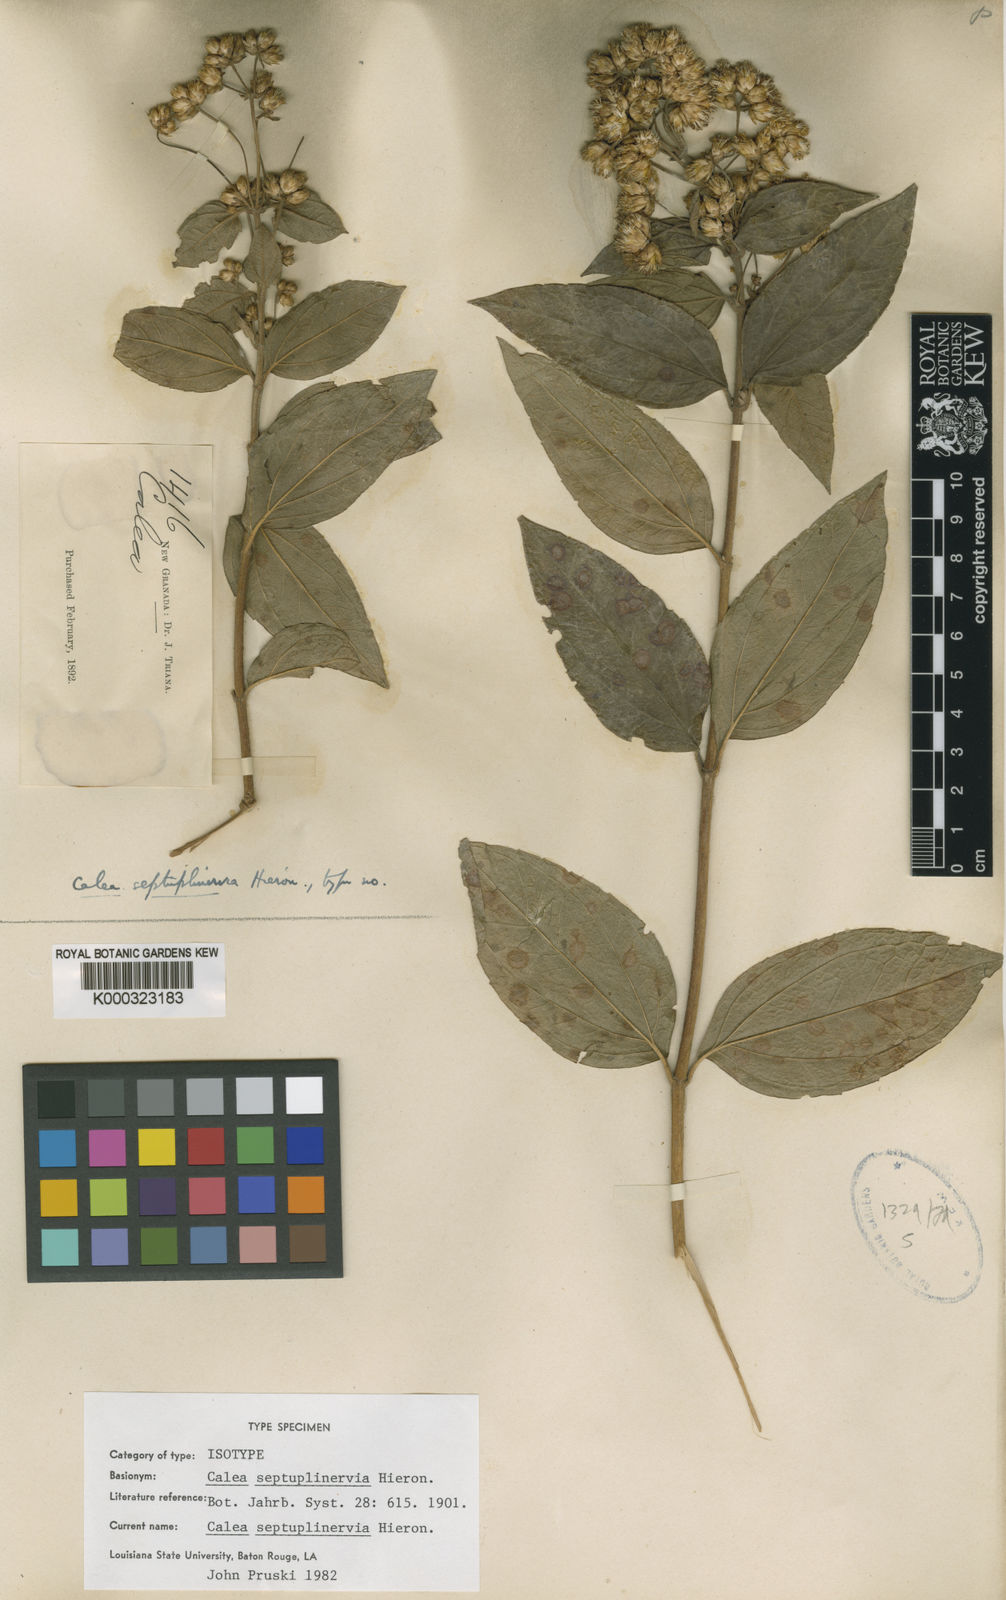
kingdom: Plantae
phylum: Tracheophyta
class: Magnoliopsida
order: Asterales
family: Asteraceae
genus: Calea
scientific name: Calea septuplinervia
